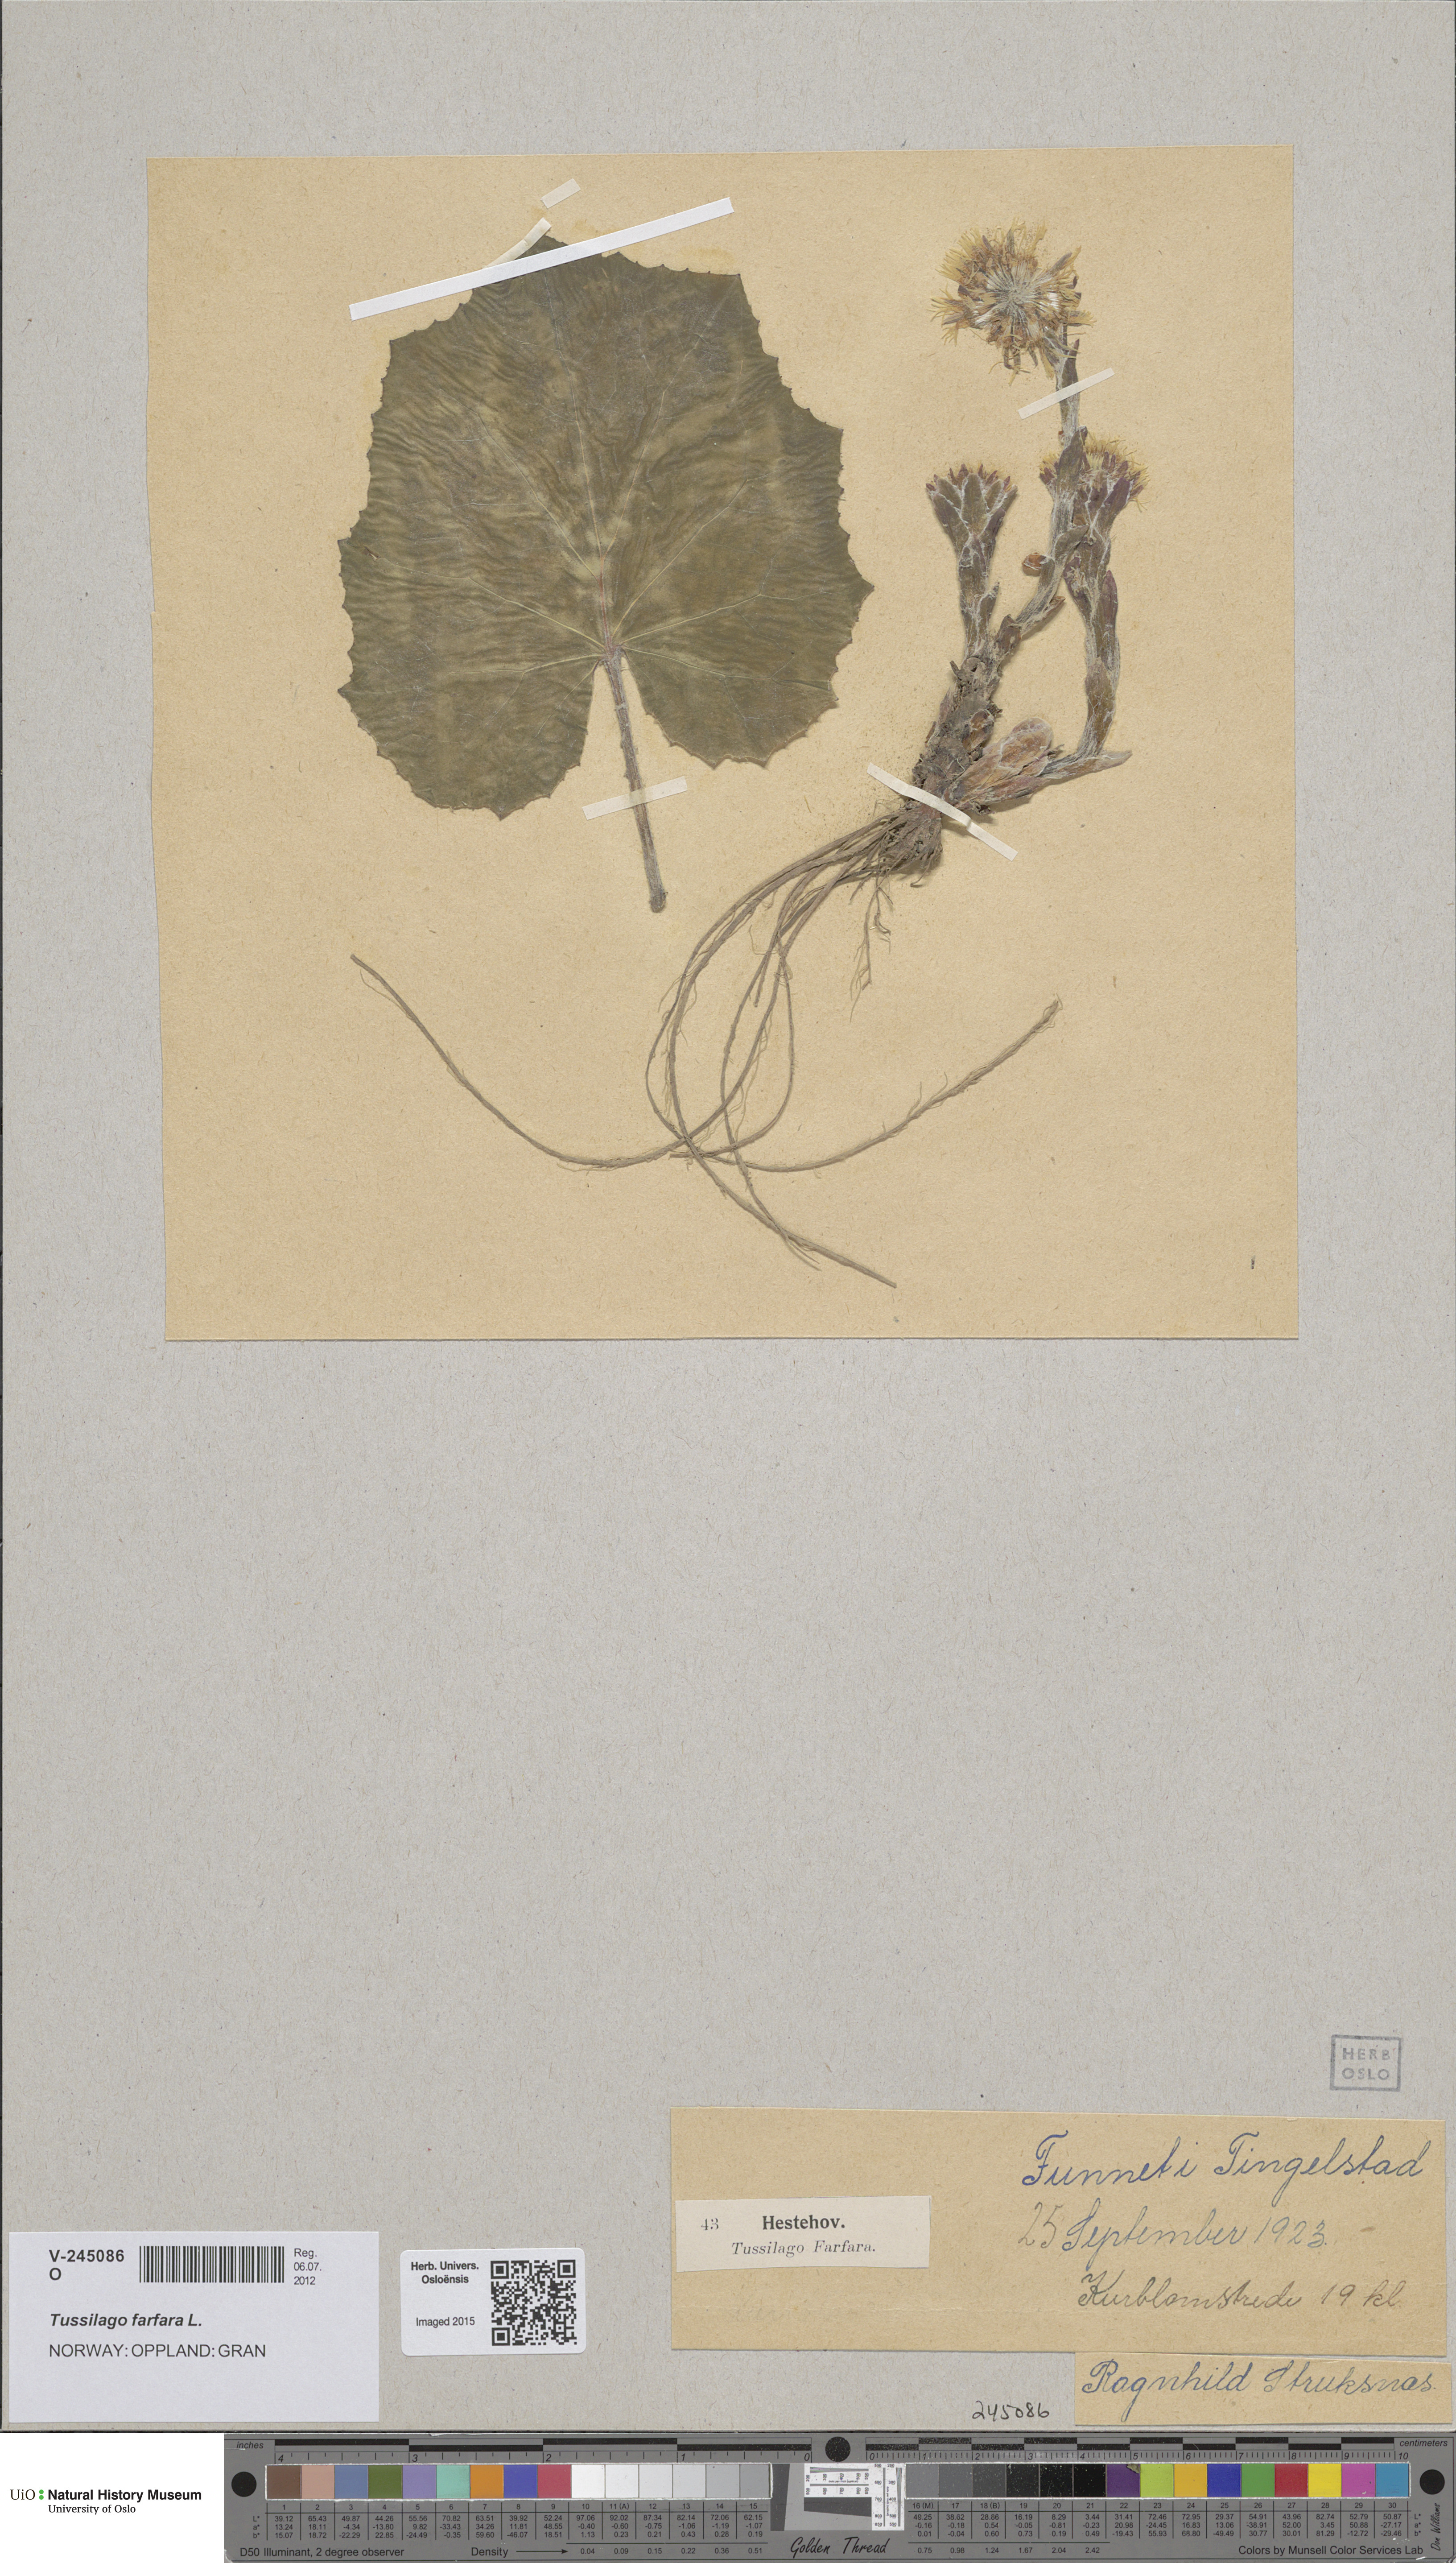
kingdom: Plantae
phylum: Tracheophyta
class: Magnoliopsida
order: Asterales
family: Asteraceae
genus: Tussilago
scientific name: Tussilago farfara
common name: Coltsfoot
